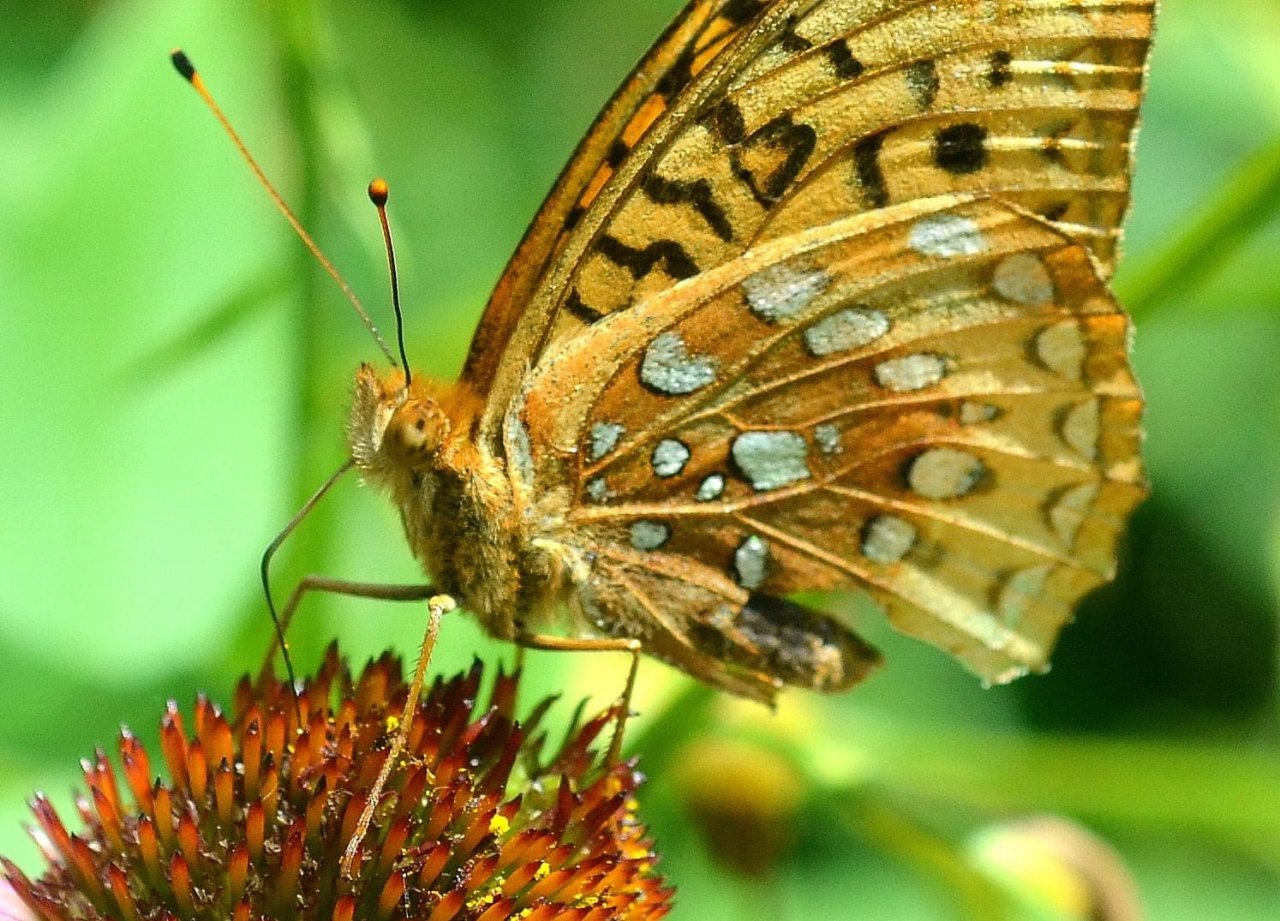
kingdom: Animalia
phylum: Arthropoda
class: Insecta
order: Lepidoptera
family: Nymphalidae
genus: Speyeria
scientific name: Speyeria cybele
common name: Great Spangled Fritillary
